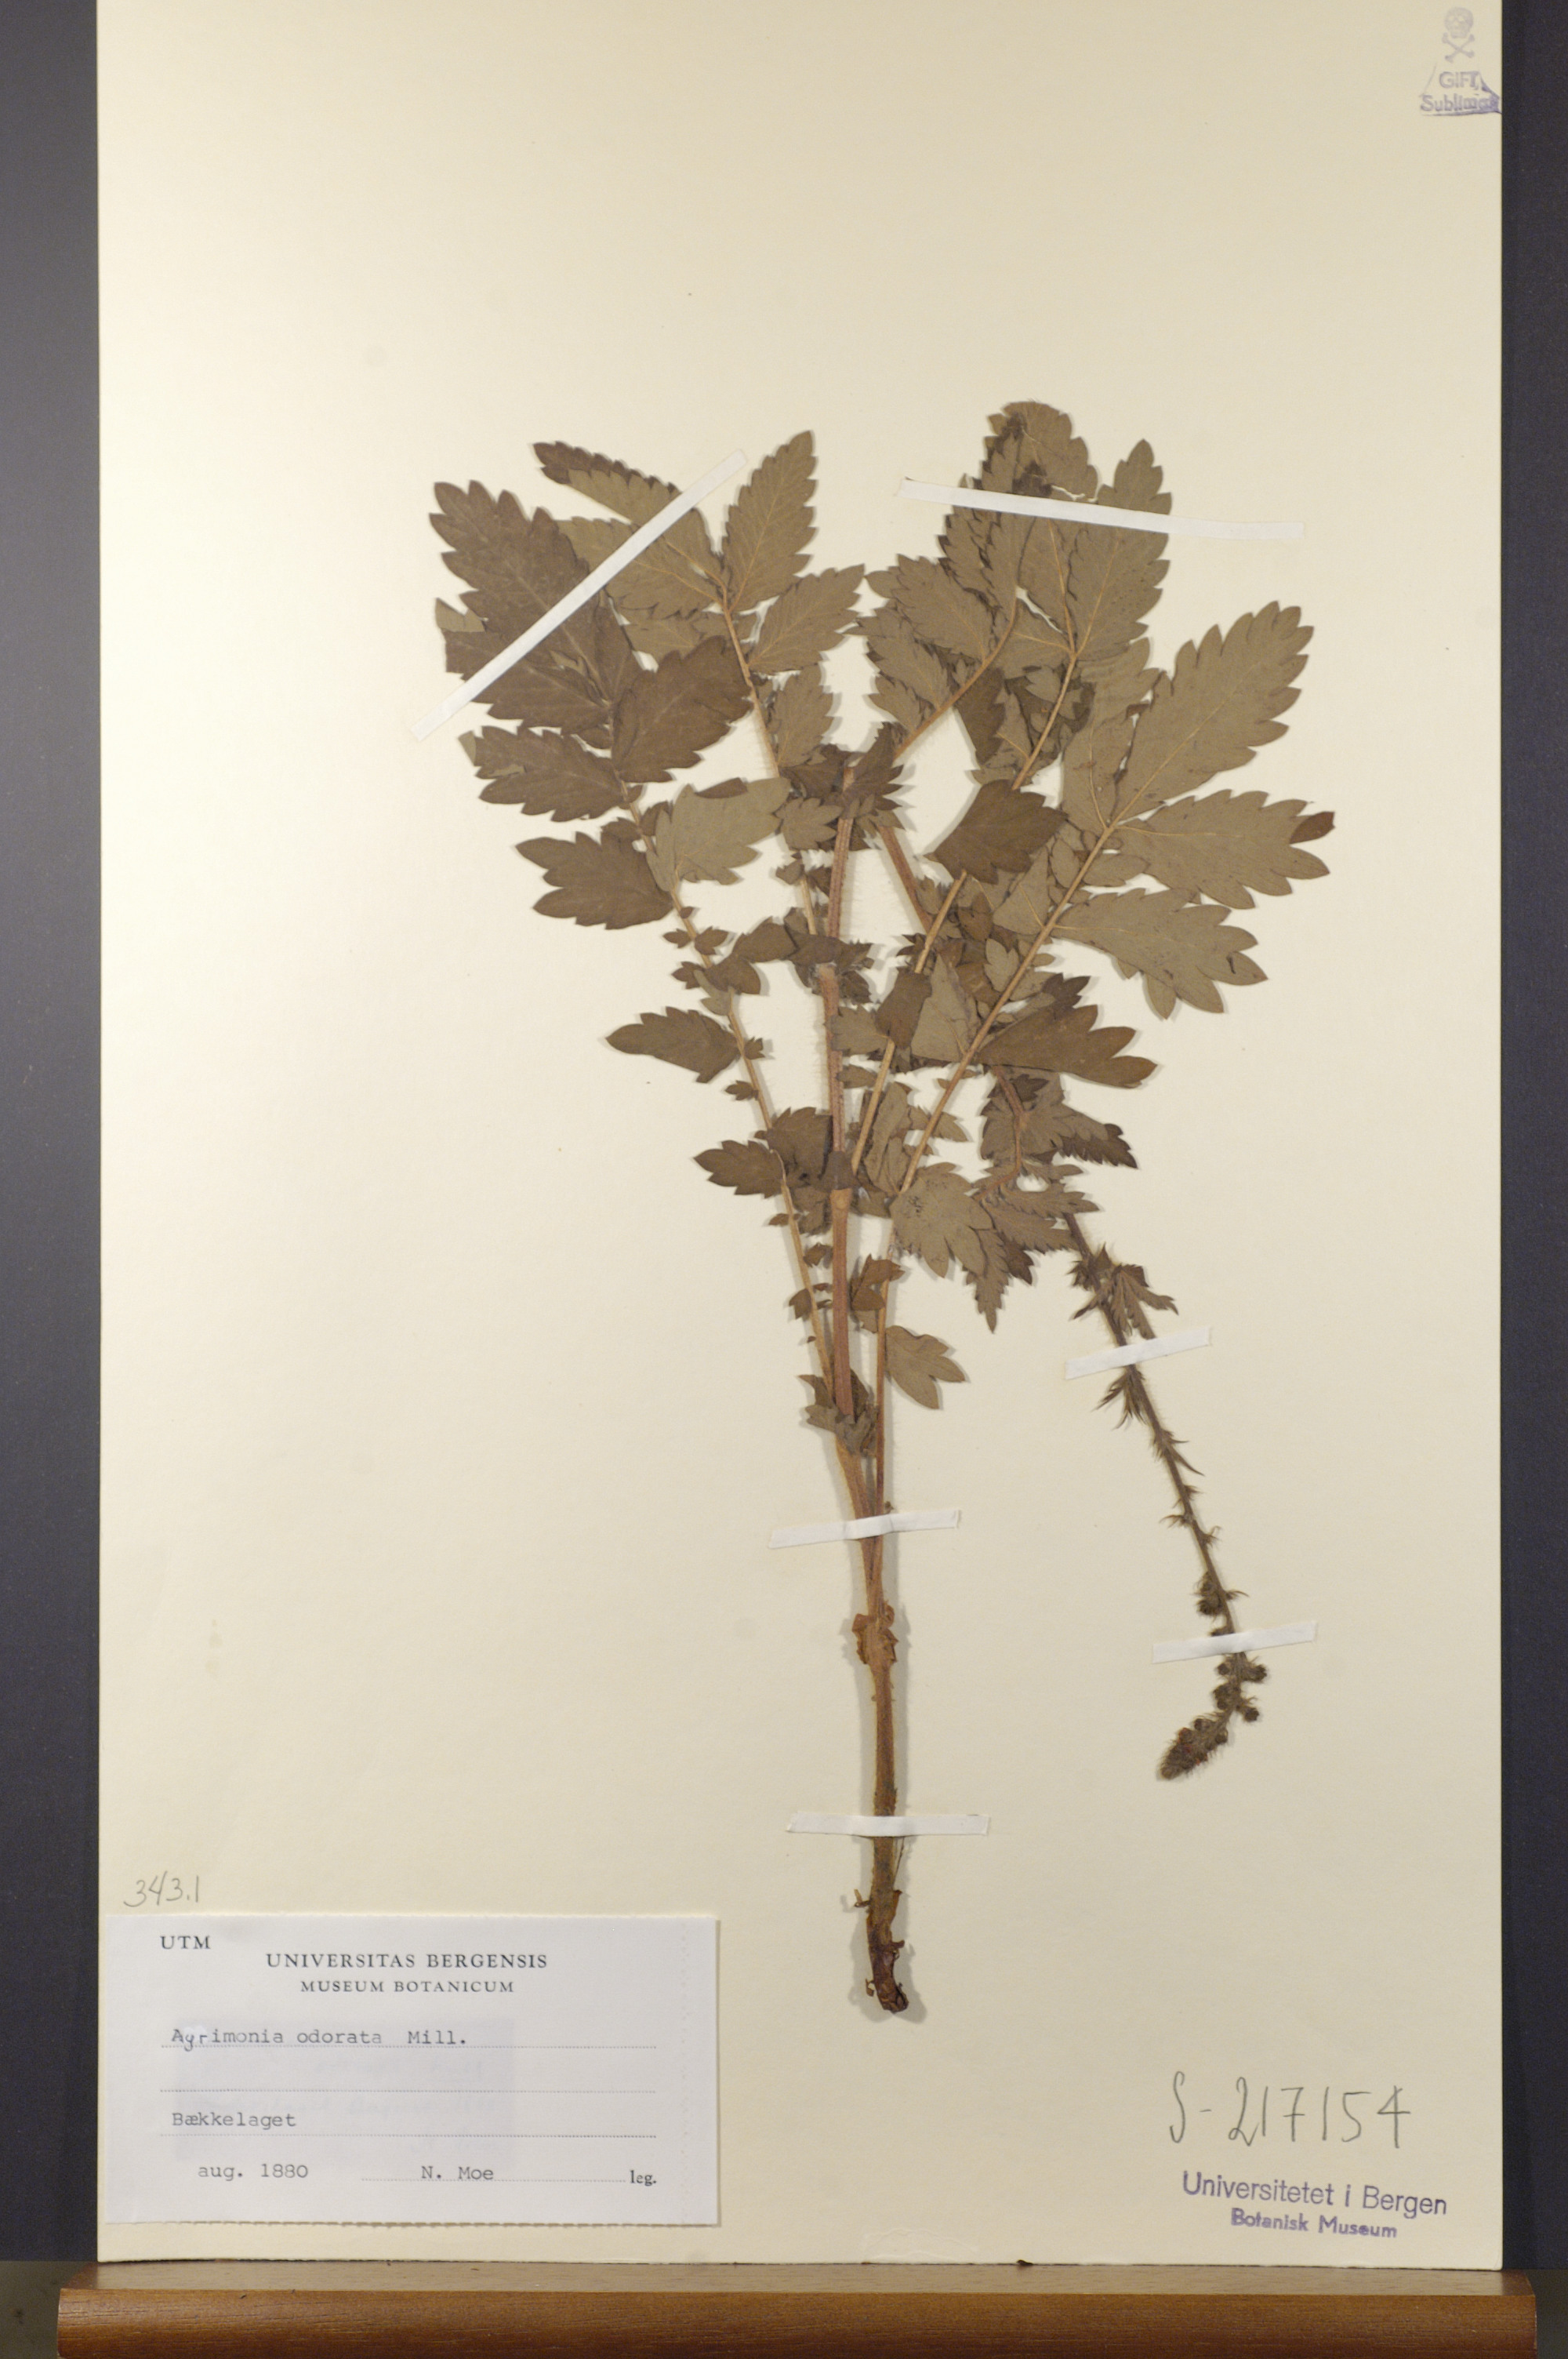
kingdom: Plantae
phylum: Tracheophyta
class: Magnoliopsida
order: Rosales
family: Rosaceae
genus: Agrimonia
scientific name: Agrimonia procera
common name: Fragrant agrimony
